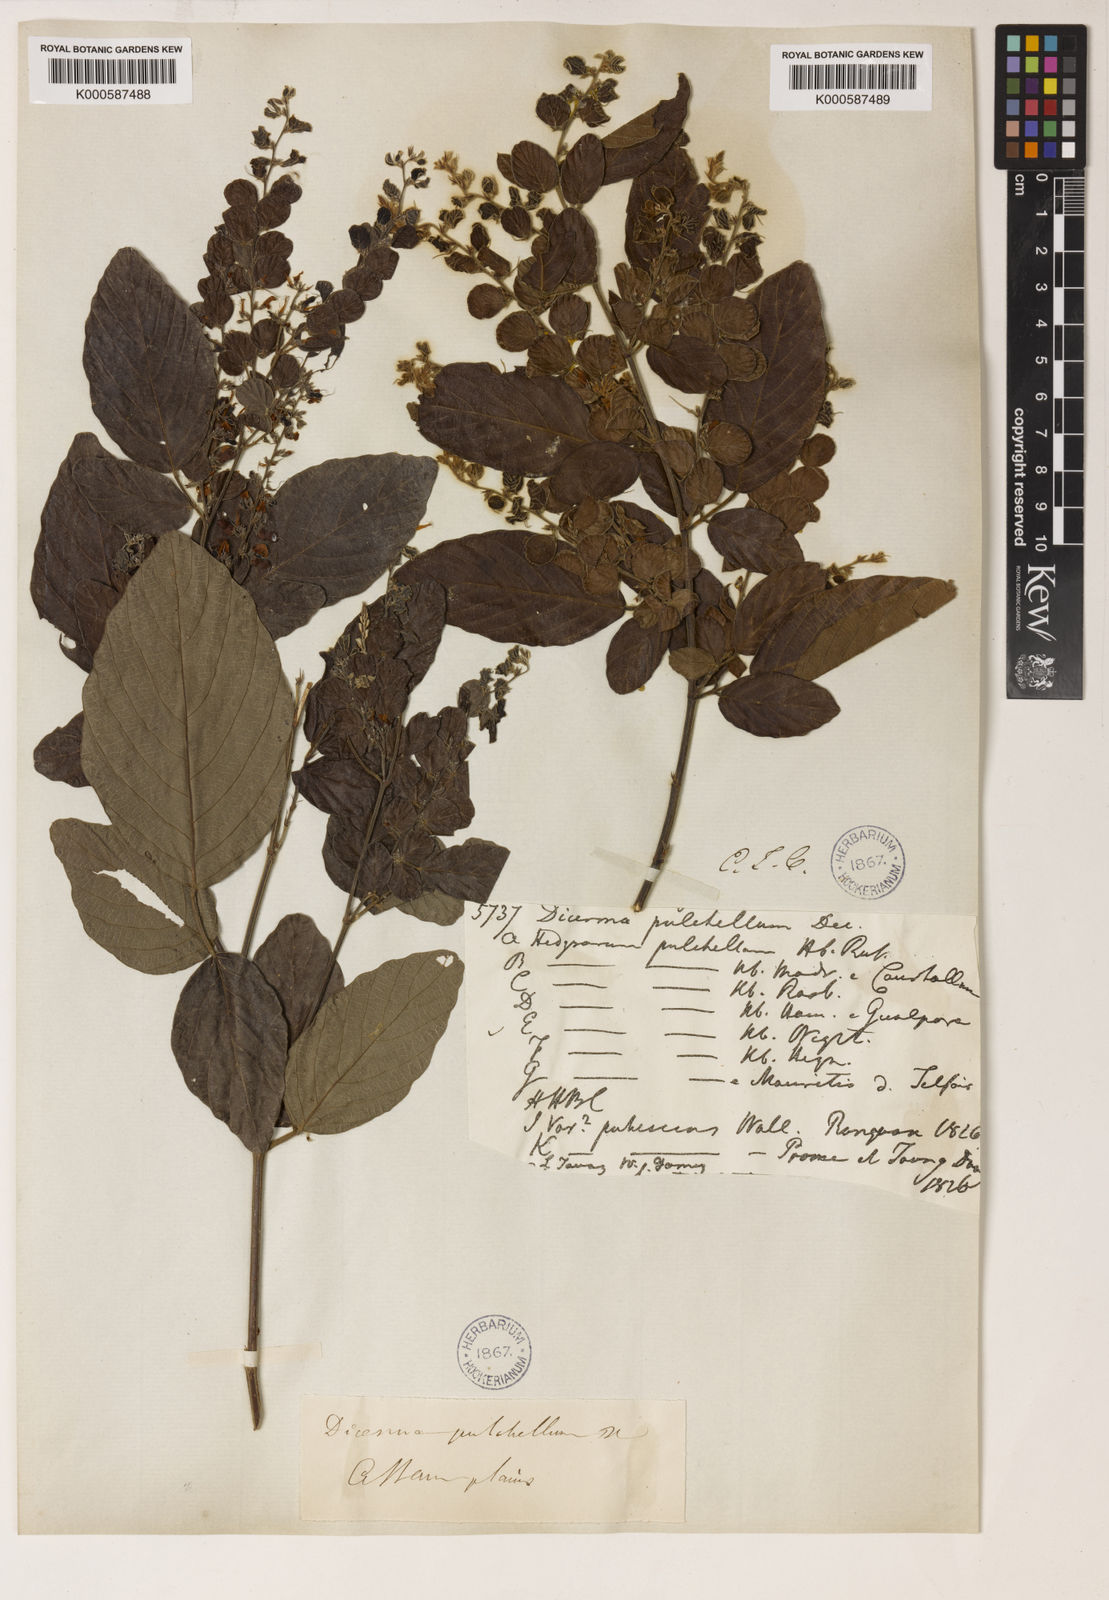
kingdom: Plantae
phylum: Tracheophyta
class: Magnoliopsida
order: Fabales
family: Fabaceae
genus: Phyllodium
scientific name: Phyllodium pulchellum
